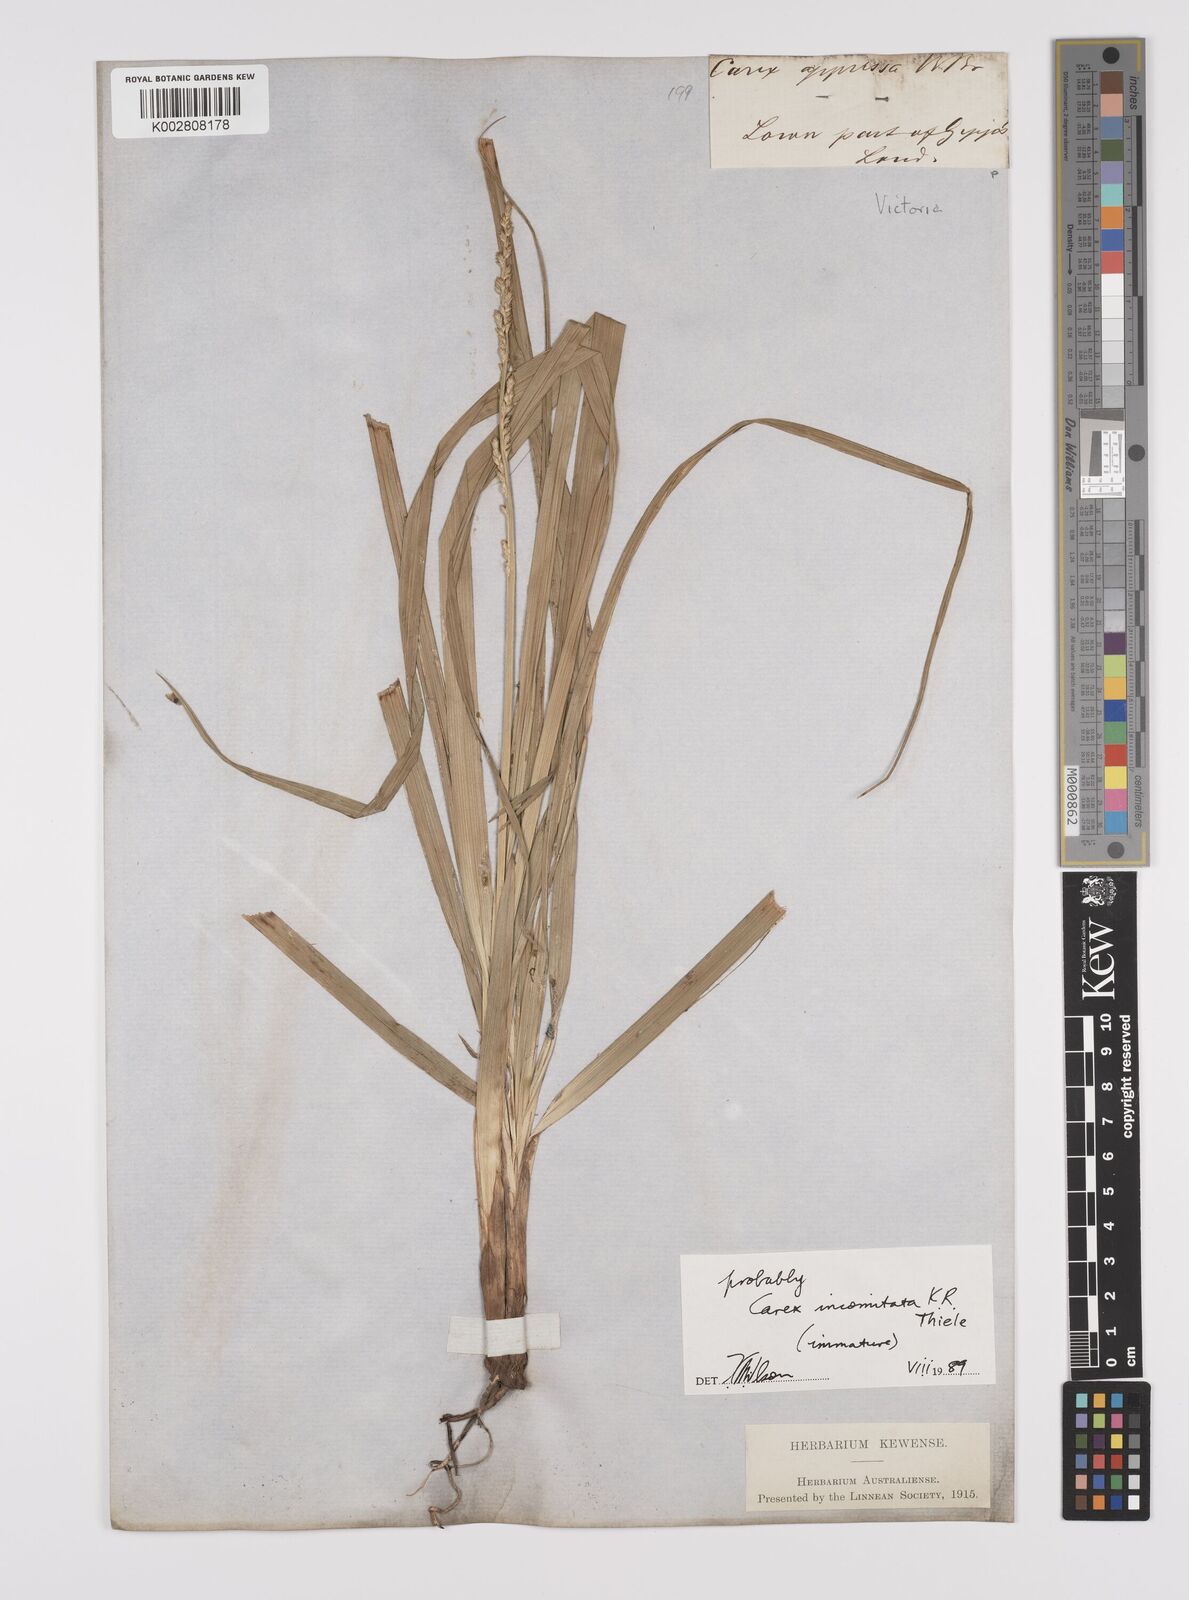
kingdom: Plantae
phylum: Tracheophyta
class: Liliopsida
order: Poales
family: Cyperaceae
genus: Carex
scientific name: Carex incomitata
